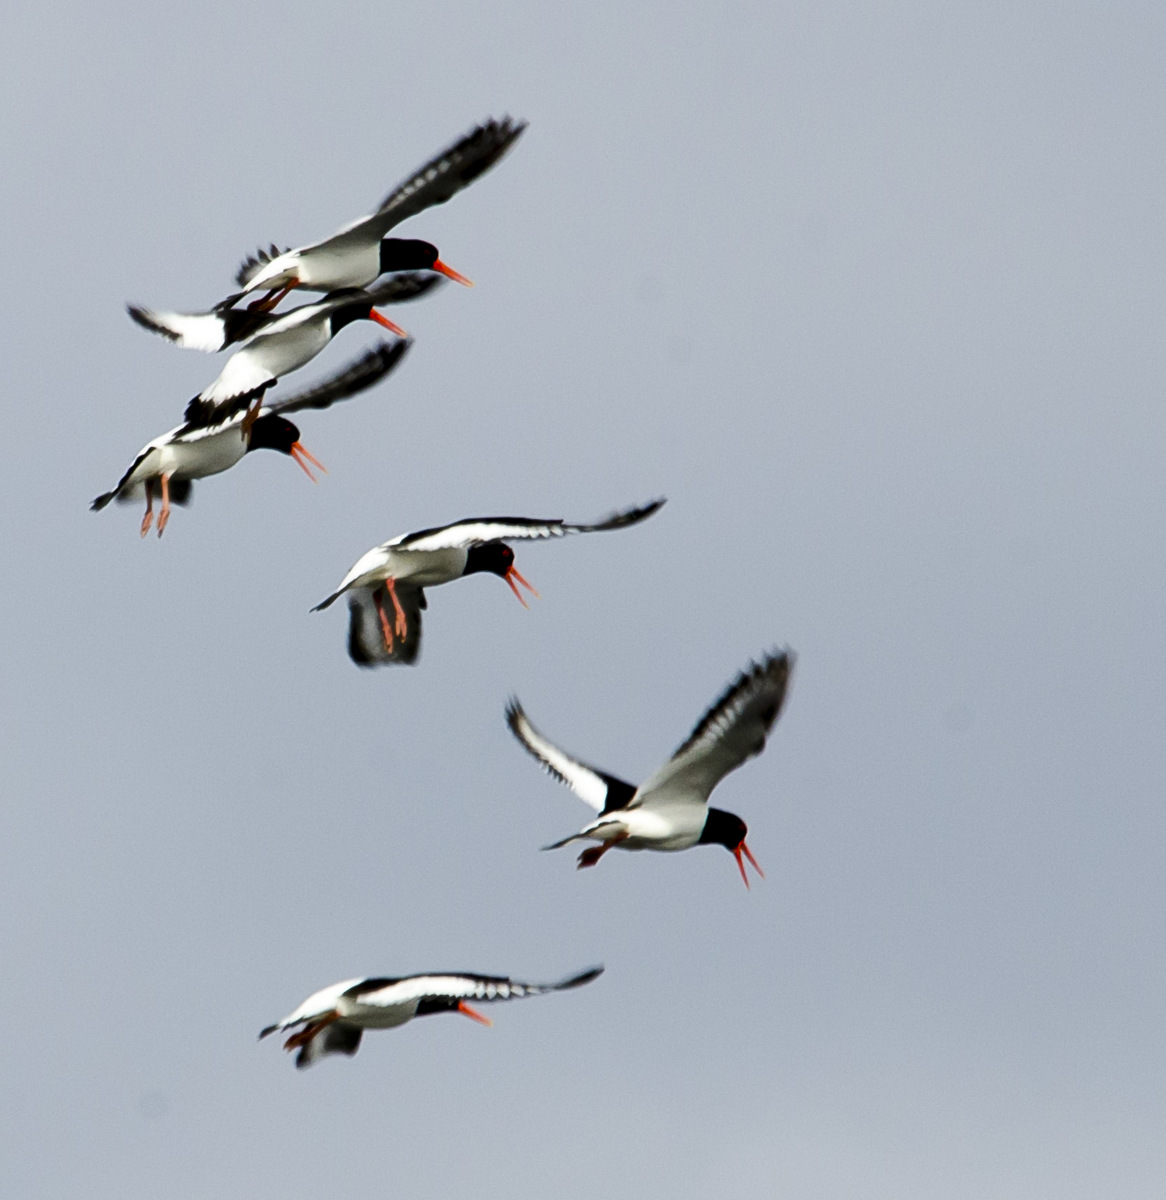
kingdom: Animalia
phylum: Chordata
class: Aves
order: Charadriiformes
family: Haematopodidae
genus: Haematopus
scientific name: Haematopus ostralegus
